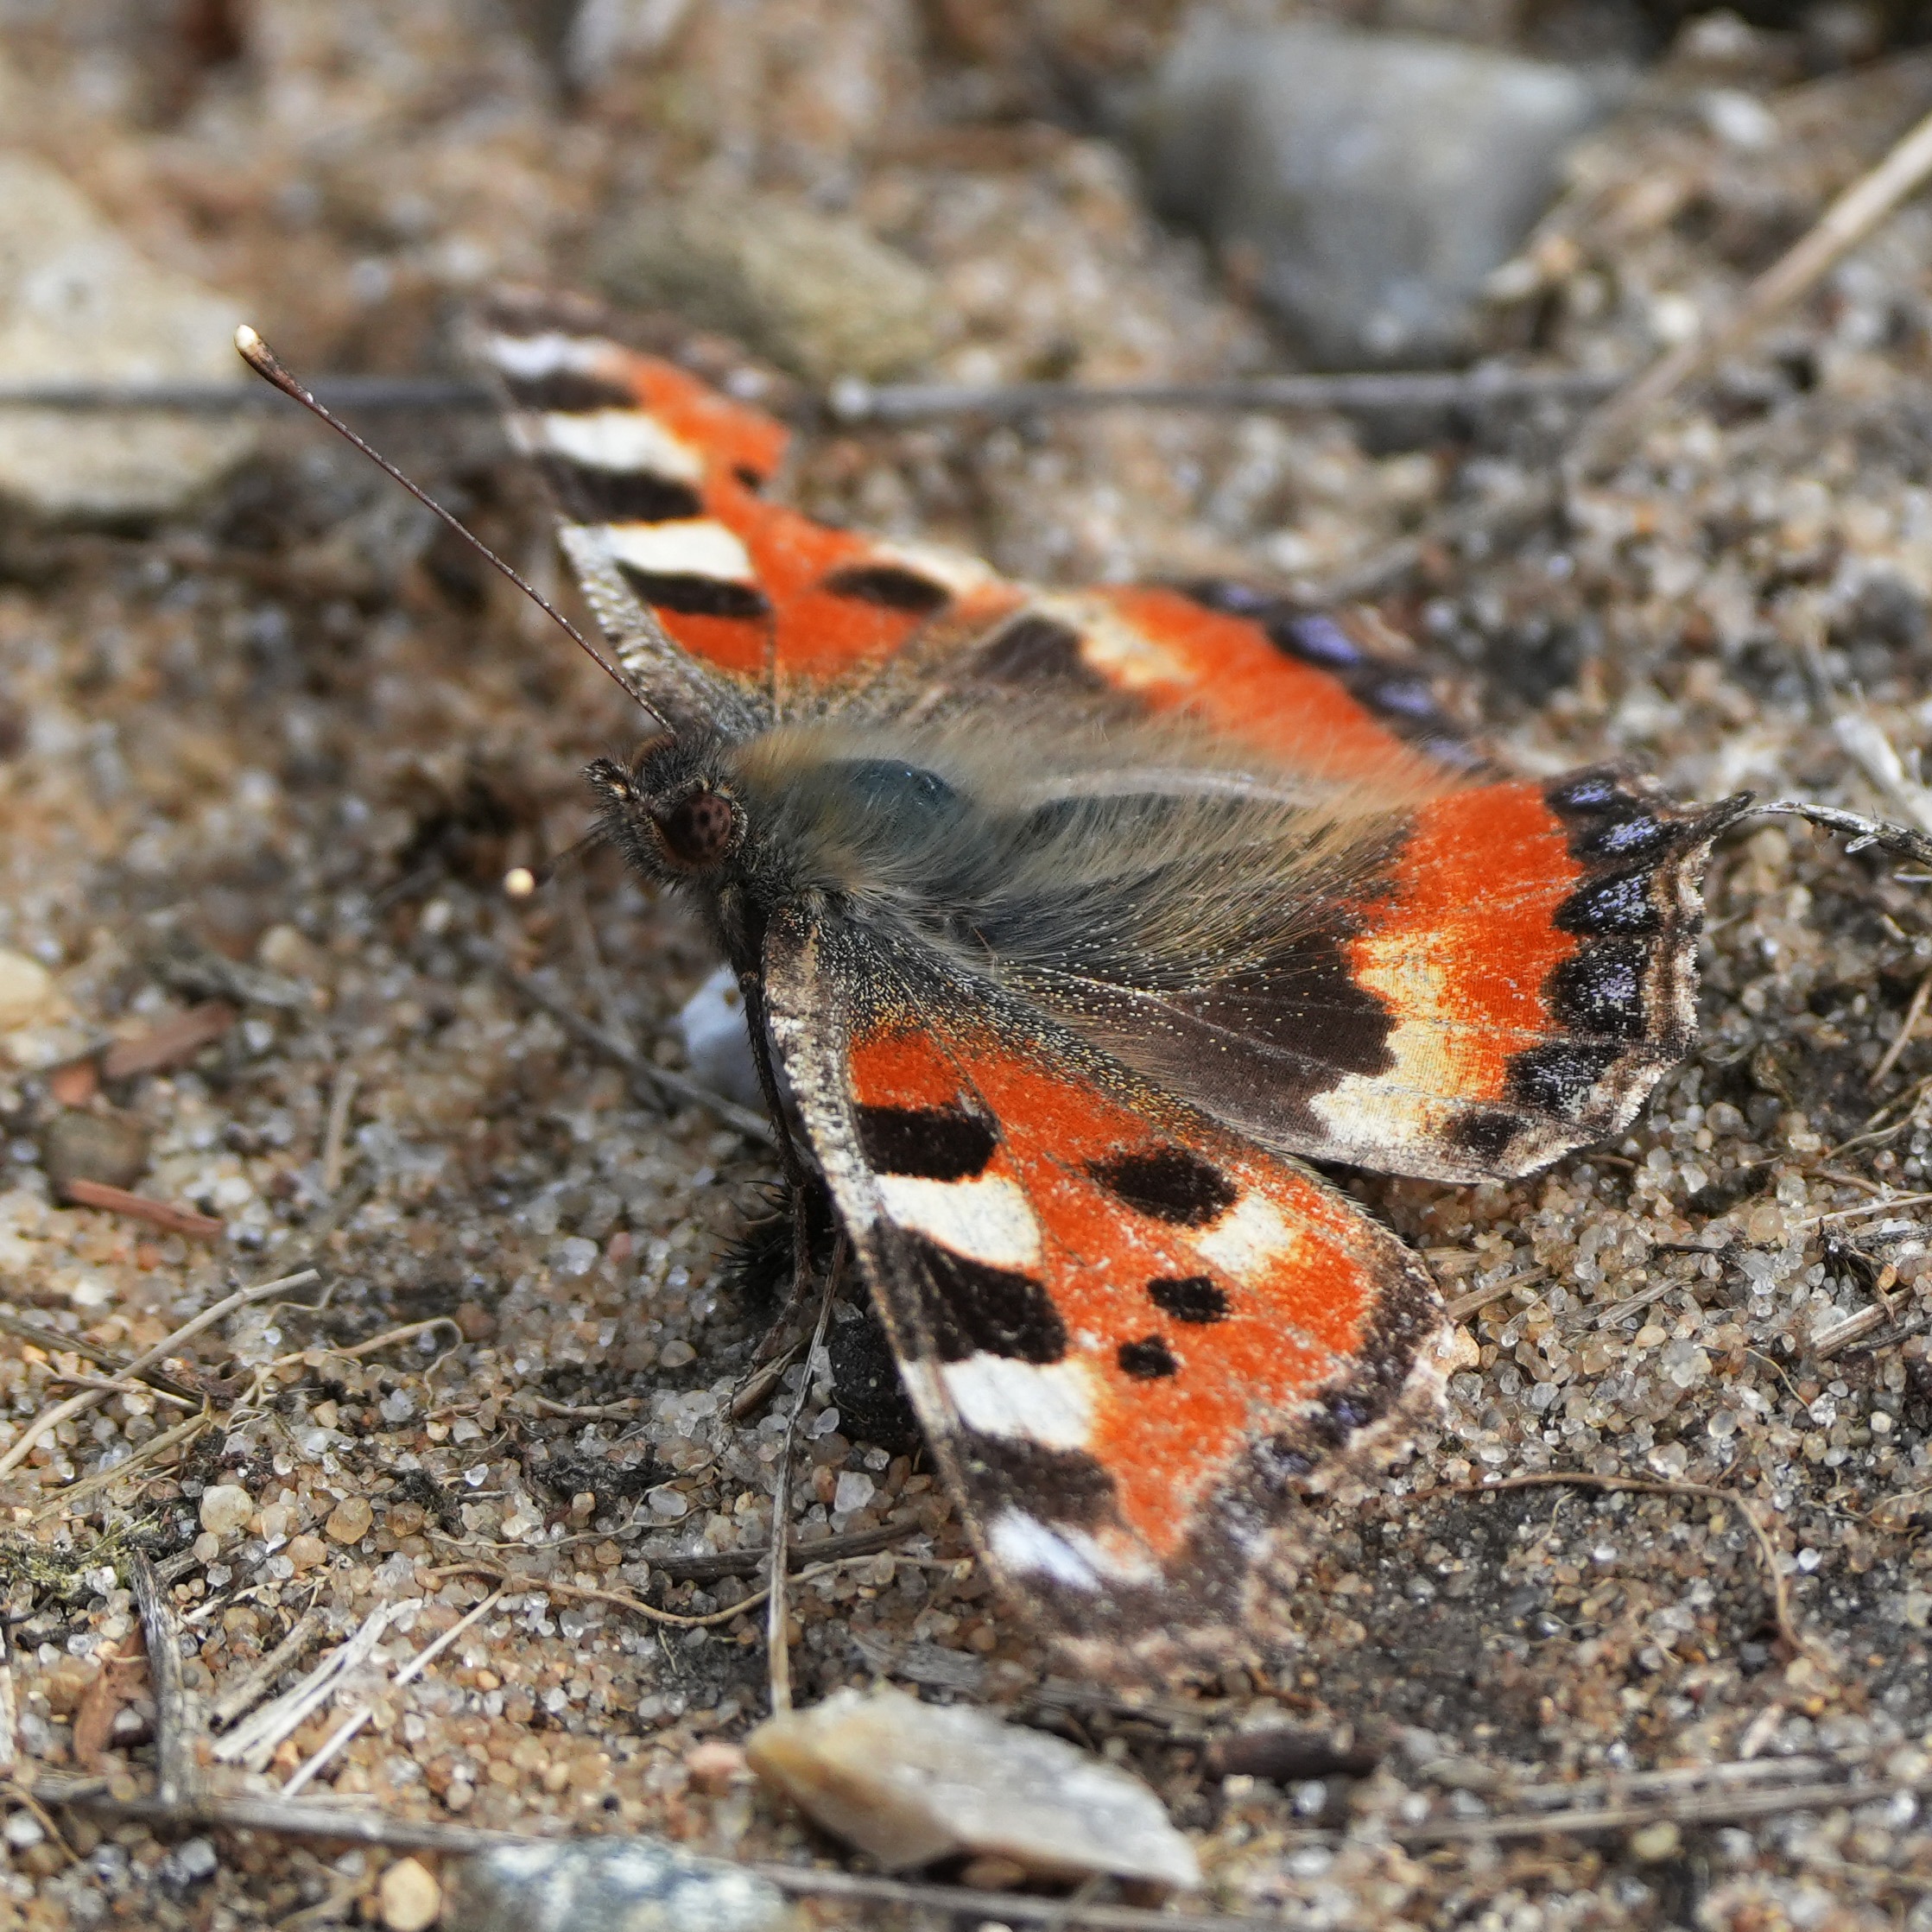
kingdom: Animalia
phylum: Arthropoda
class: Insecta
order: Lepidoptera
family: Nymphalidae
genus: Aglais
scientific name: Aglais urticae
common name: Nældens takvinge
